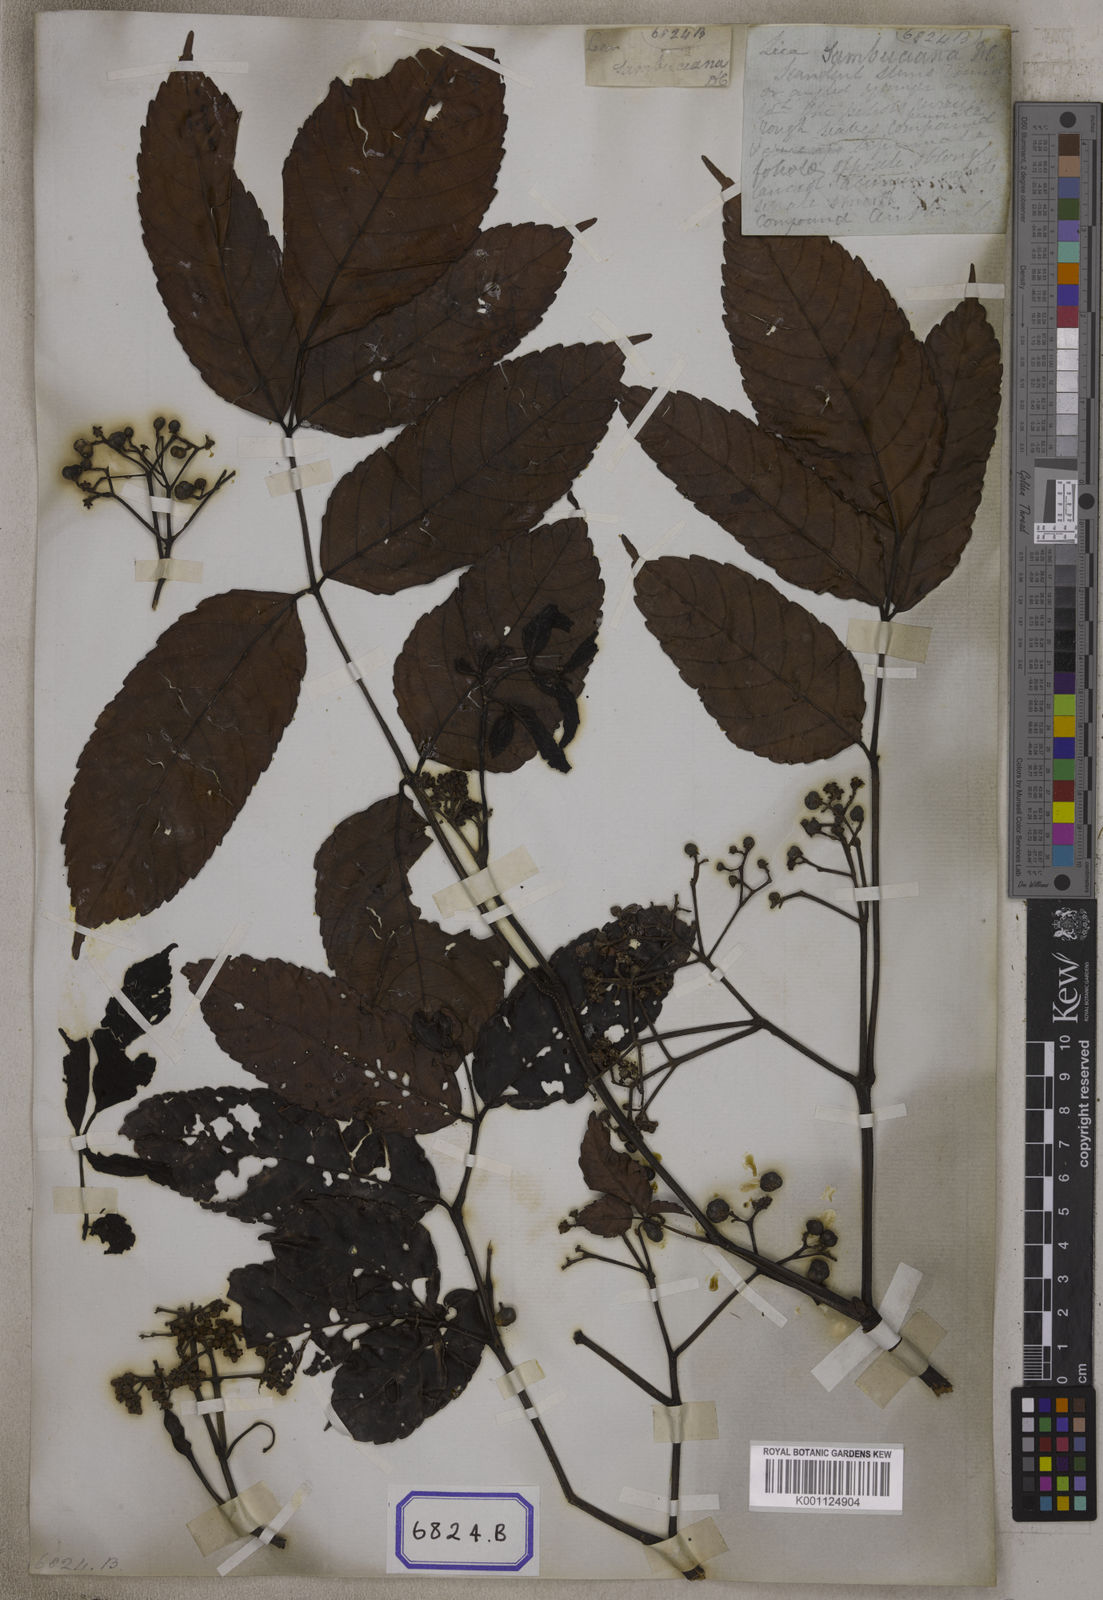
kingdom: Plantae
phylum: Tracheophyta
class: Magnoliopsida
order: Vitales
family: Vitaceae
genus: Leea
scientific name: Leea
